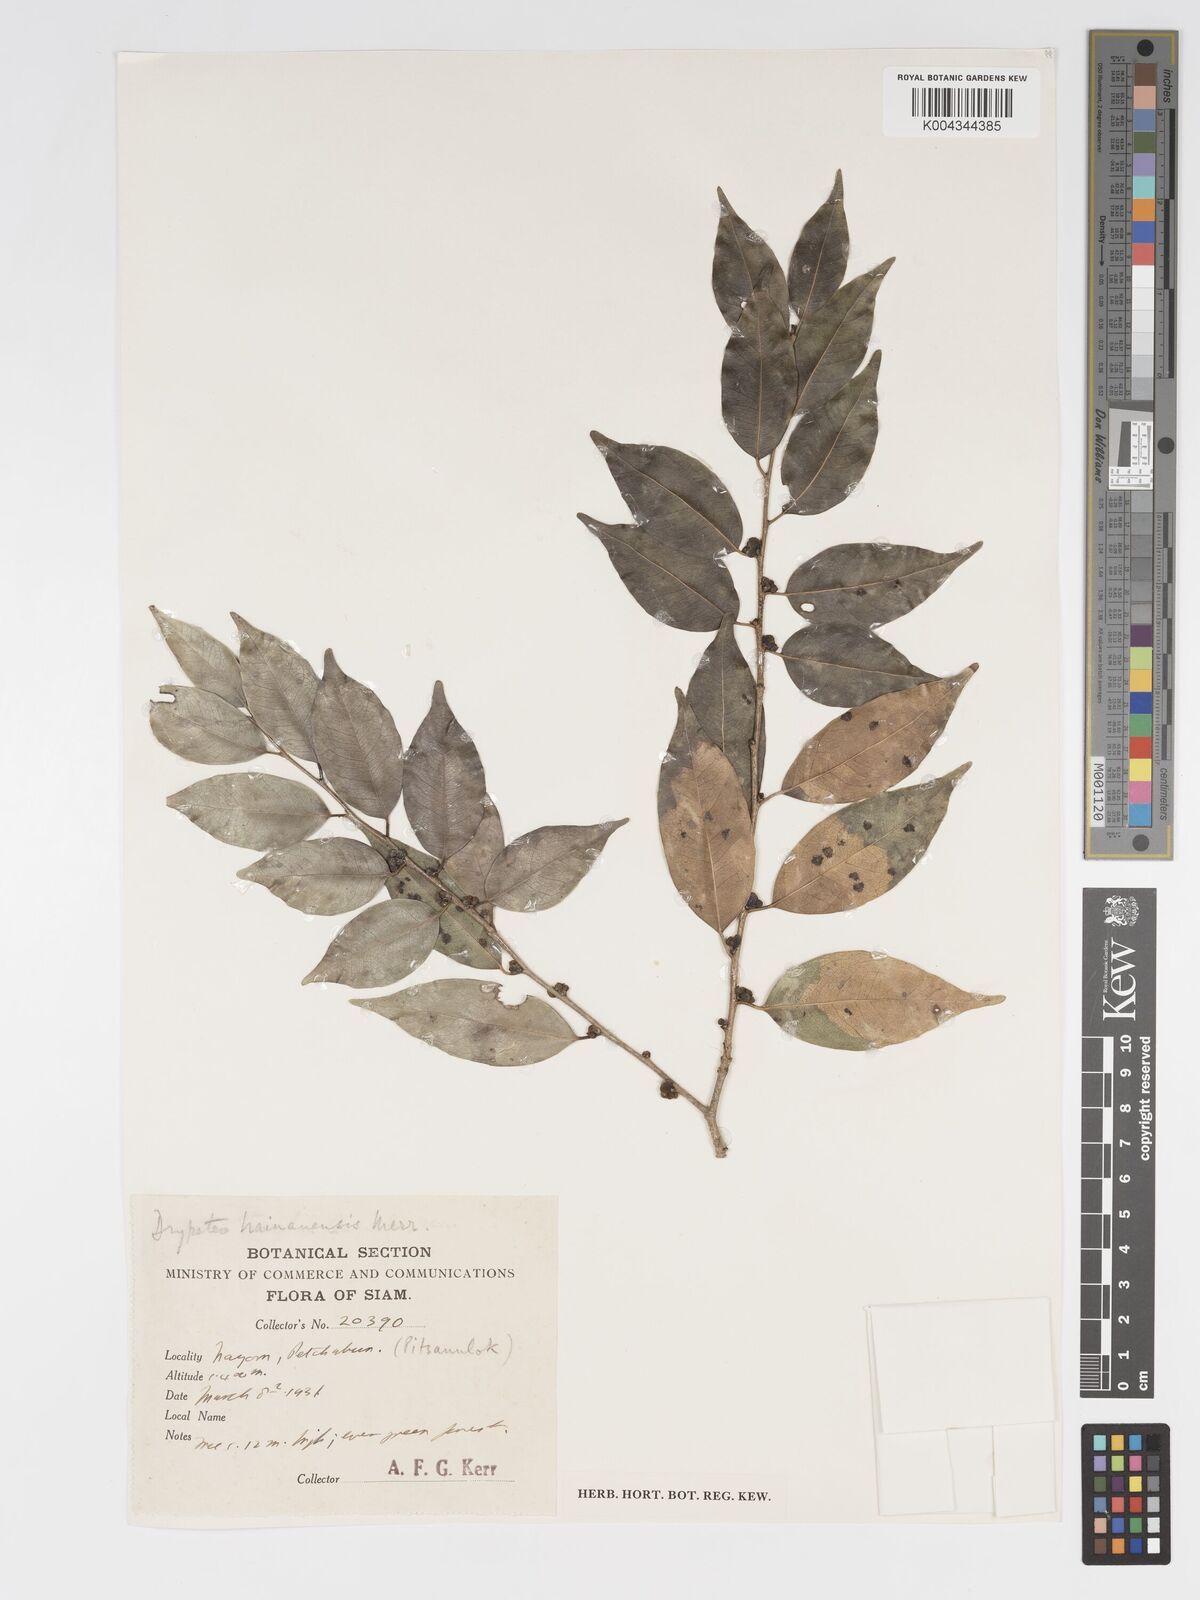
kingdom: Plantae
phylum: Tracheophyta
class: Magnoliopsida
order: Malpighiales
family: Putranjivaceae
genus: Drypetes
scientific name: Drypetes hainanensis
